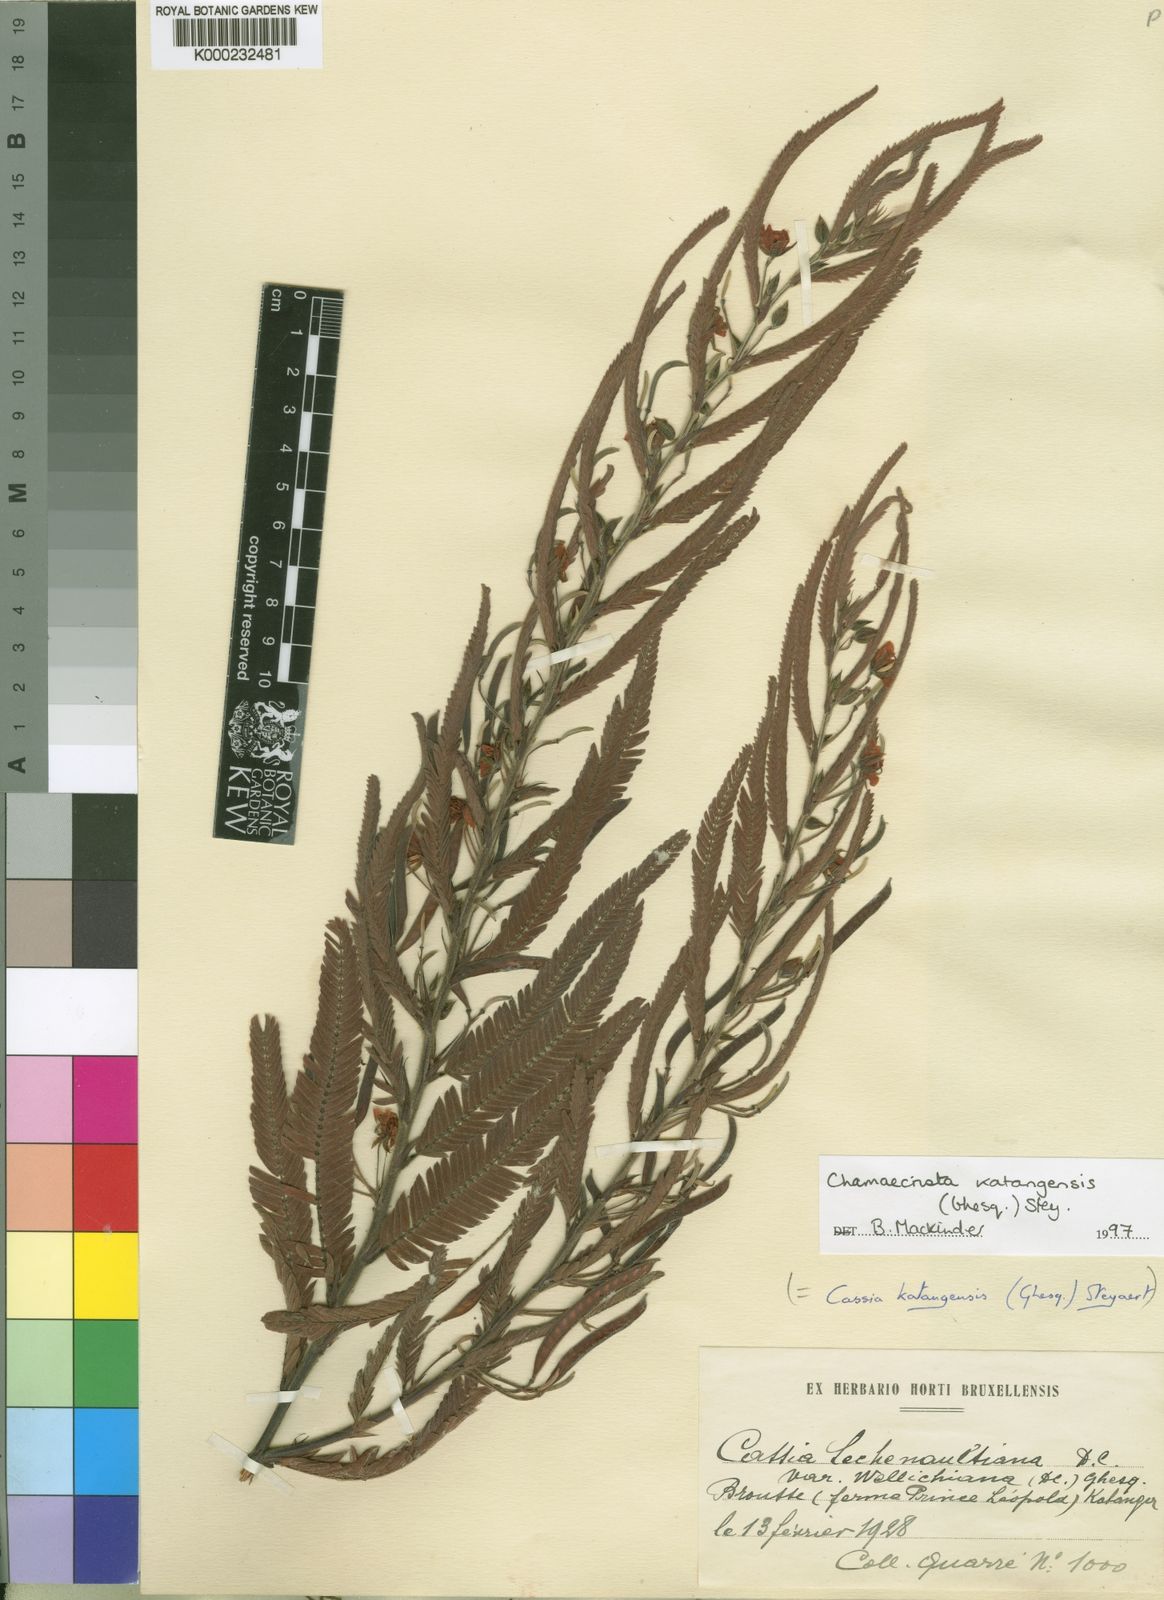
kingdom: Plantae
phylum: Tracheophyta
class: Magnoliopsida
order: Fabales
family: Fabaceae
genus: Chamaecrista
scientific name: Chamaecrista
